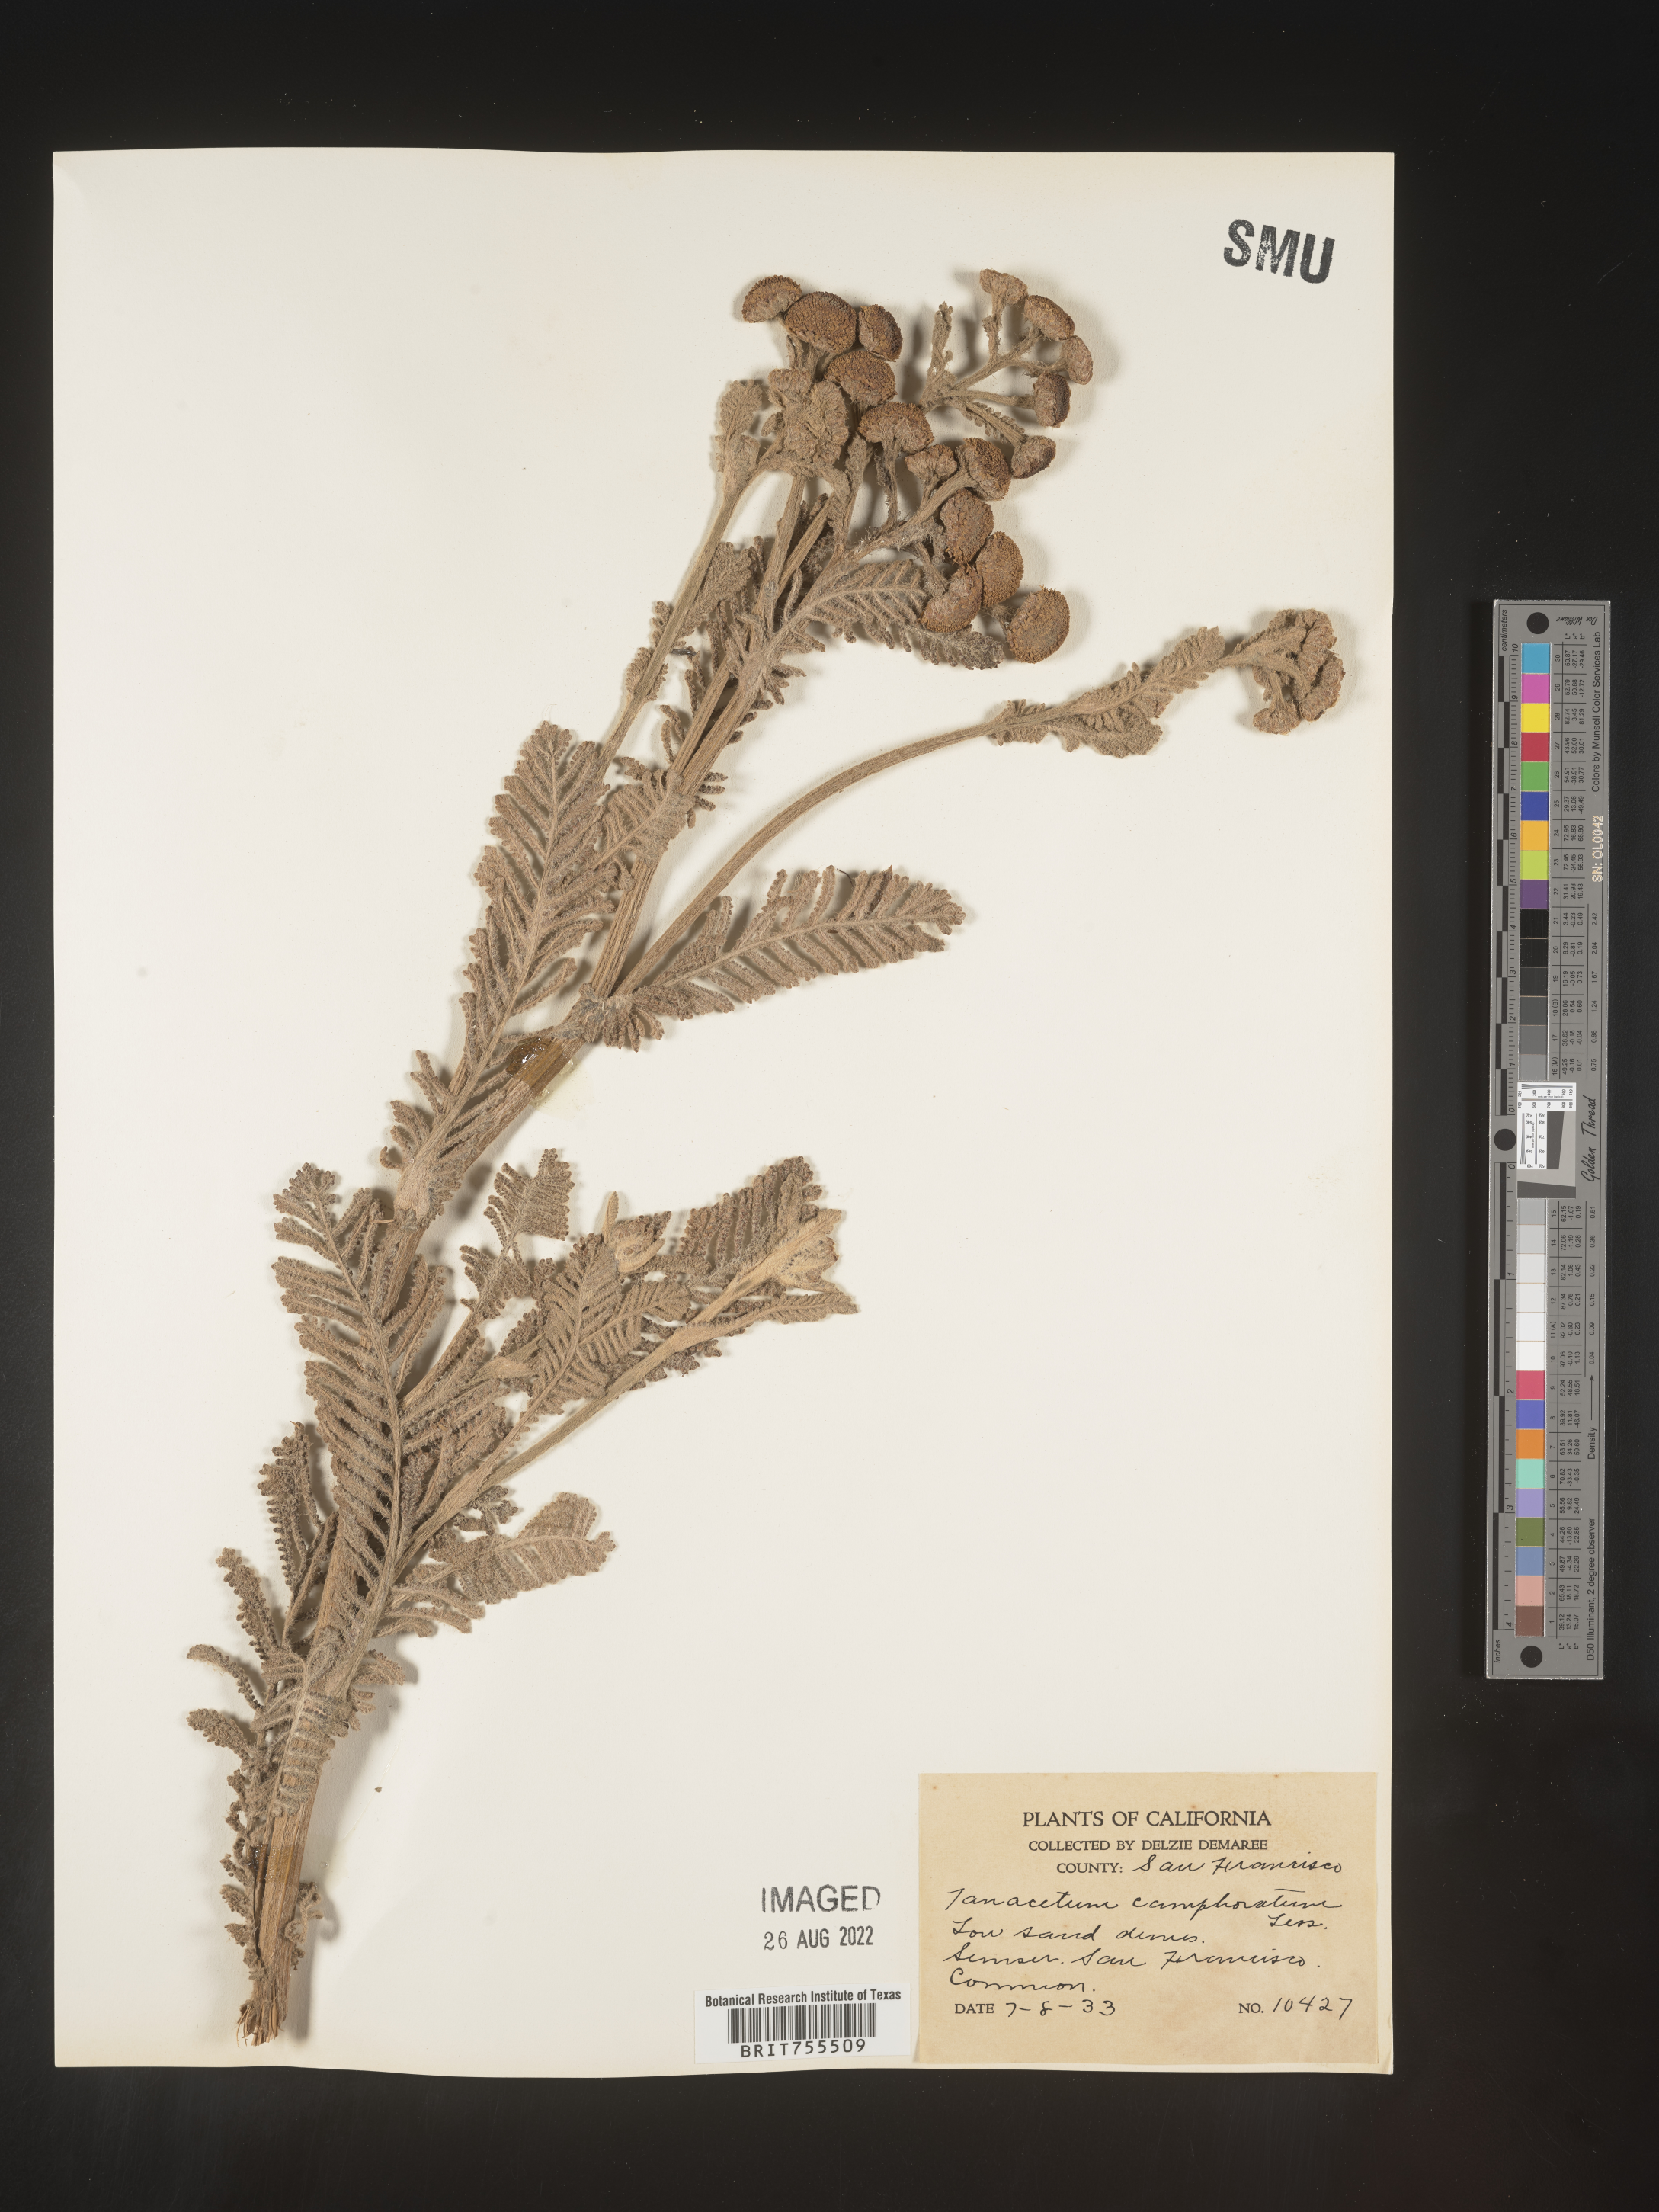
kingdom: Plantae
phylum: Tracheophyta
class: Magnoliopsida
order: Asterales
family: Asteraceae
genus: Tanacetum
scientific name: Tanacetum bipinnatum
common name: Dwarf tansy
